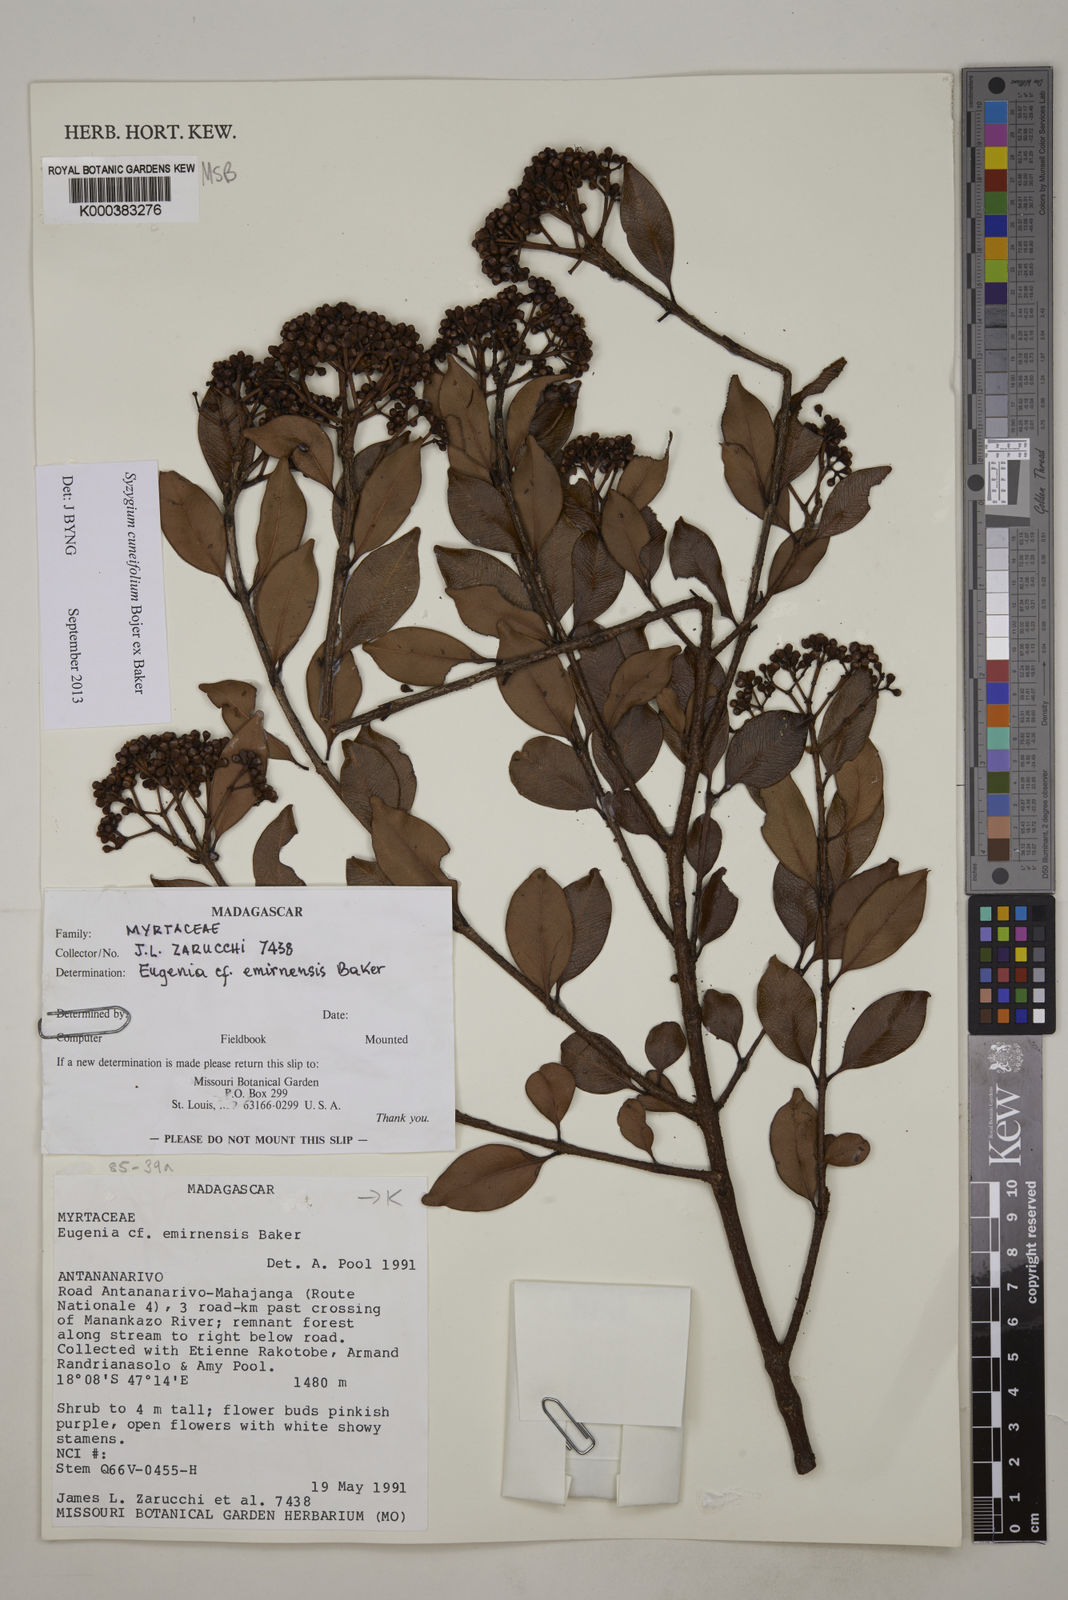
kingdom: Plantae
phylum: Tracheophyta
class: Magnoliopsida
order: Myrtales
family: Myrtaceae
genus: Syzygium
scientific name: Syzygium emirnense
